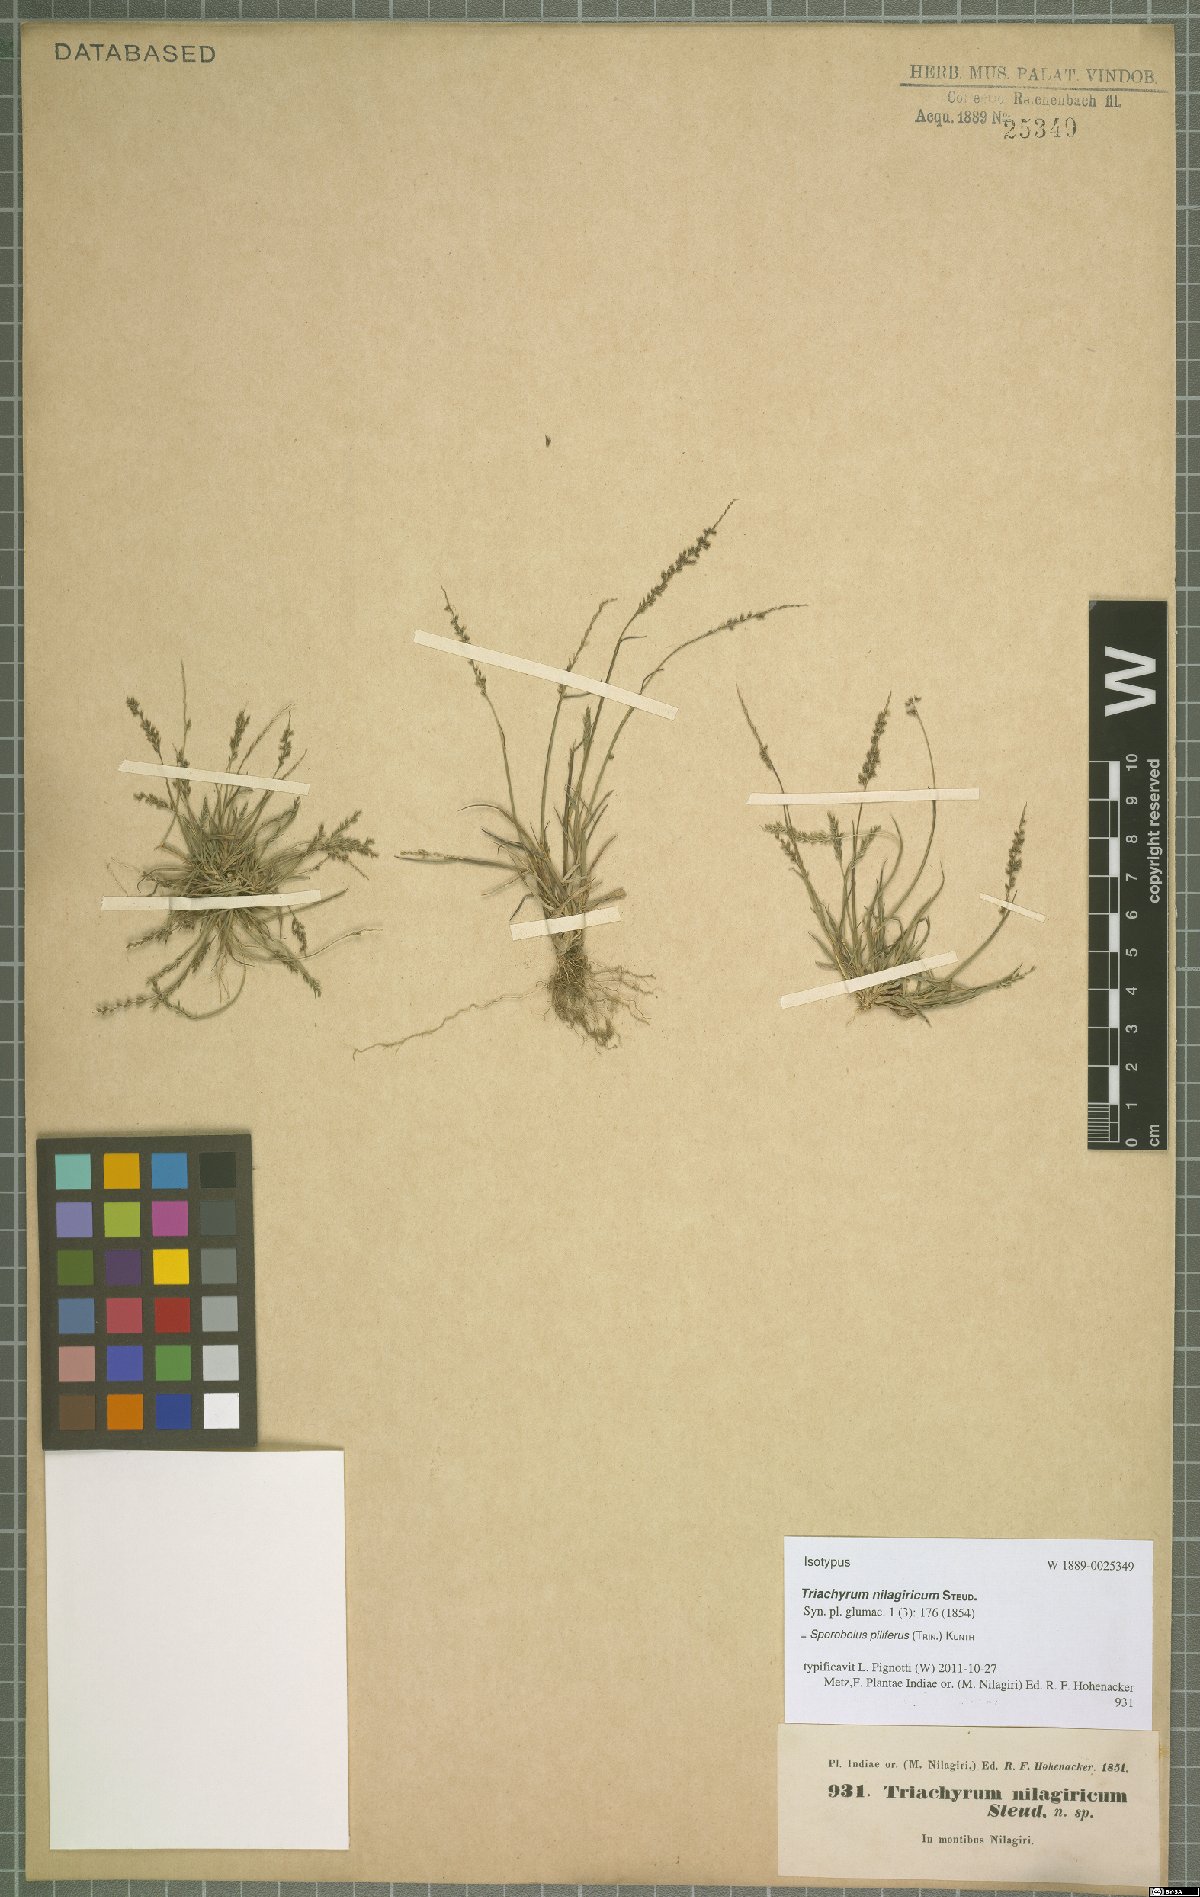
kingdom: Plantae
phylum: Tracheophyta
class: Liliopsida
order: Poales
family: Poaceae
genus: Sporobolus
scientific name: Sporobolus pilifer
